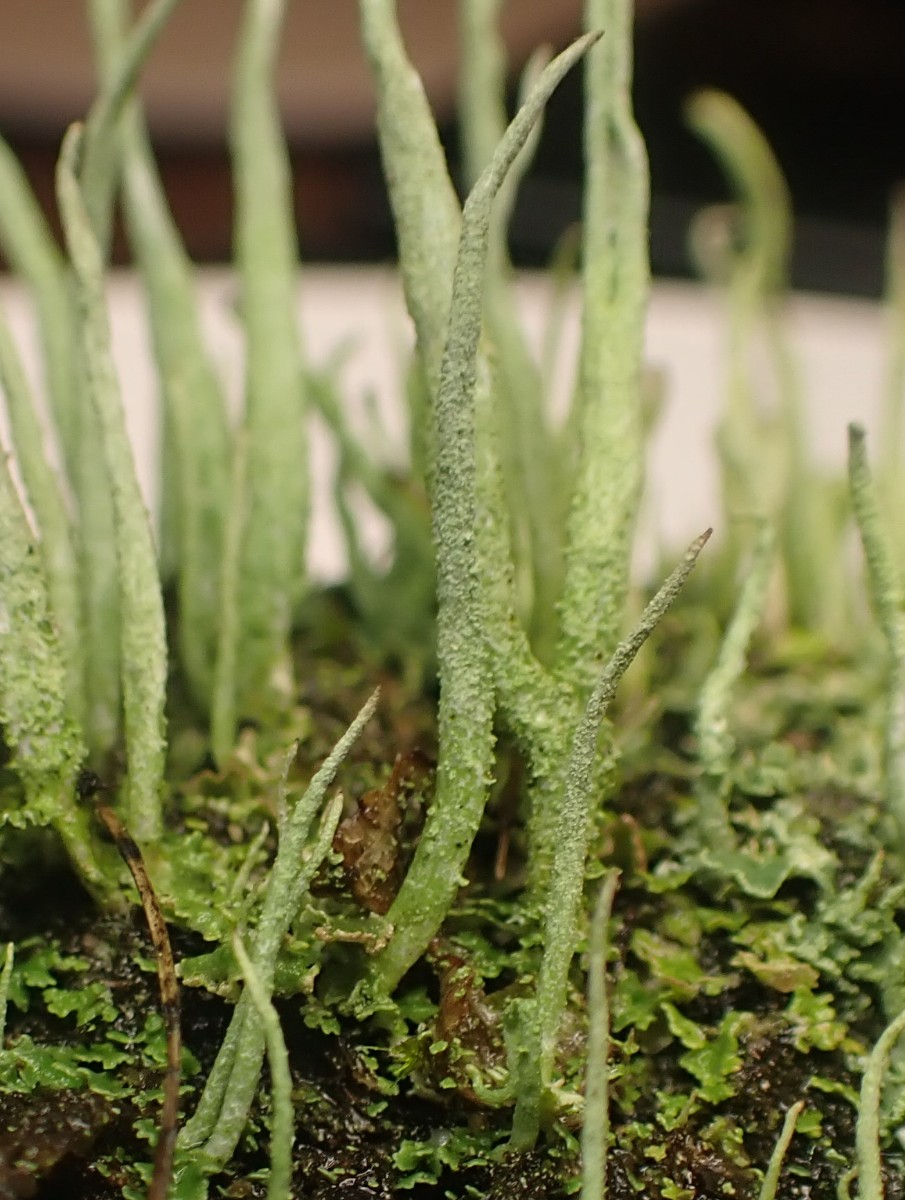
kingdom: Fungi
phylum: Ascomycota
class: Lecanoromycetes
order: Lecanorales
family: Cladoniaceae
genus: Cladonia
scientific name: Cladonia cornuta
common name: syl-bægerlav
